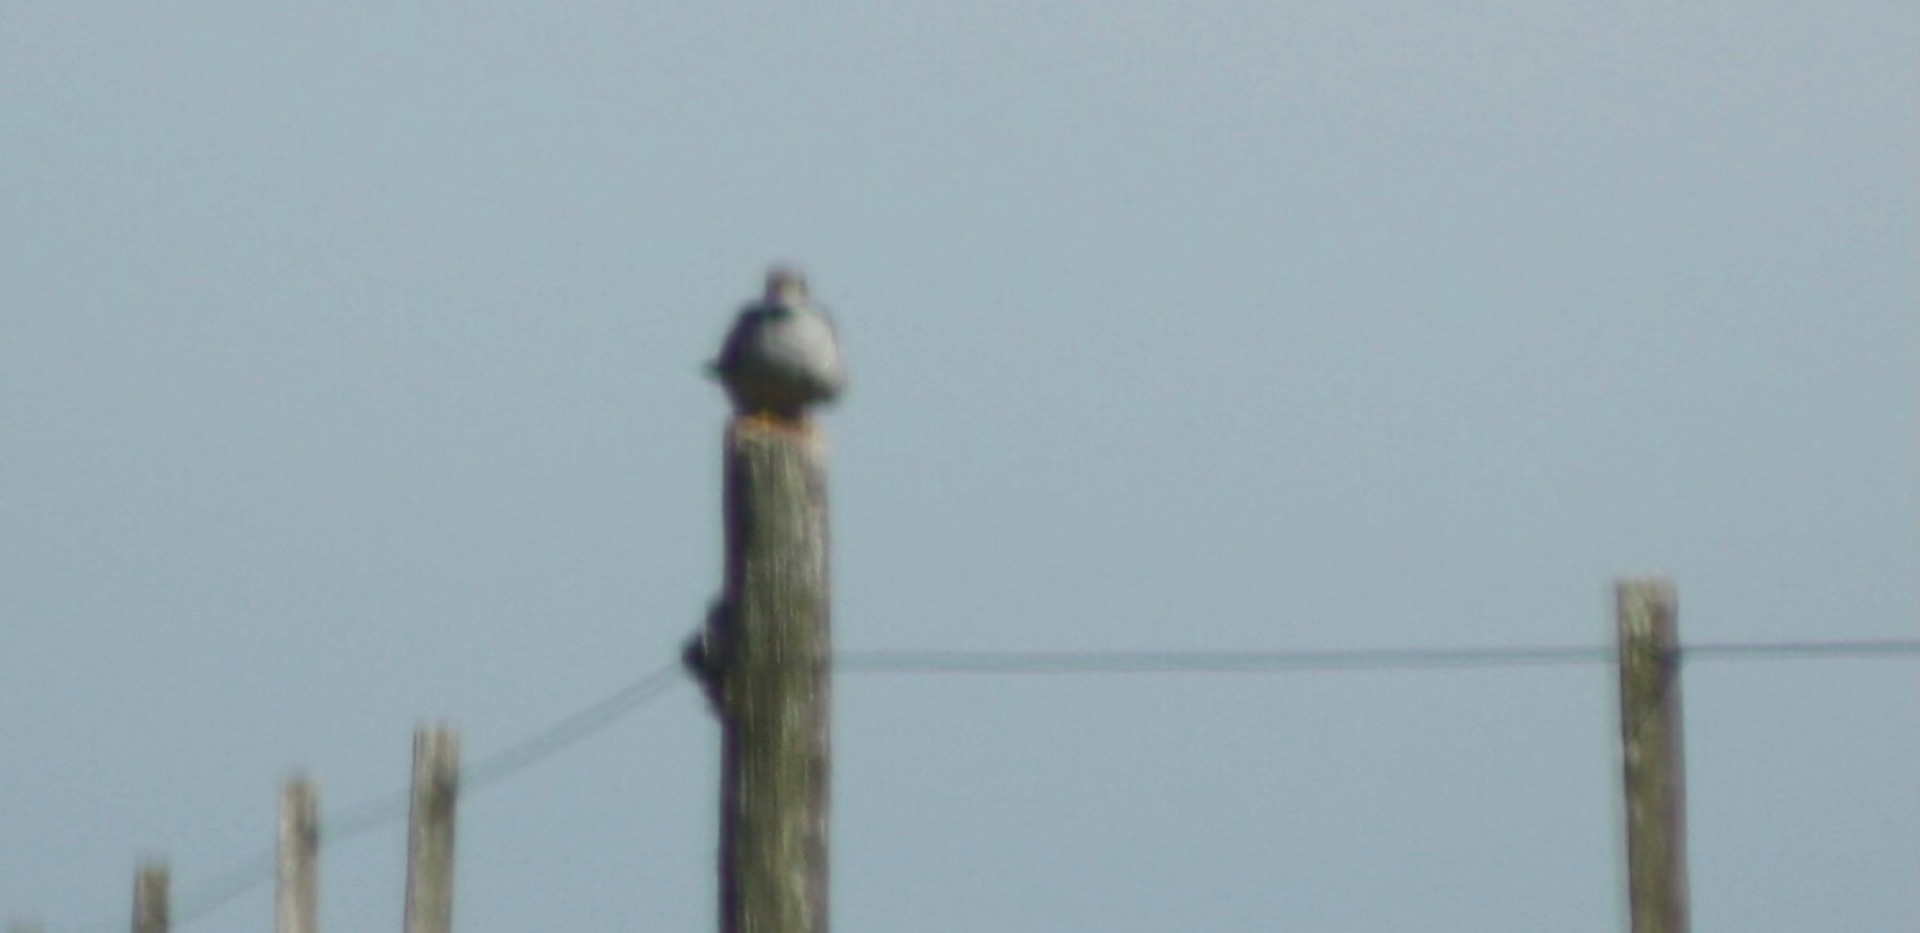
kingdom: Animalia
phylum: Chordata
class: Aves
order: Cuculiformes
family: Cuculidae
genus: Cuculus
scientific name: Cuculus canorus
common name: Gøg
